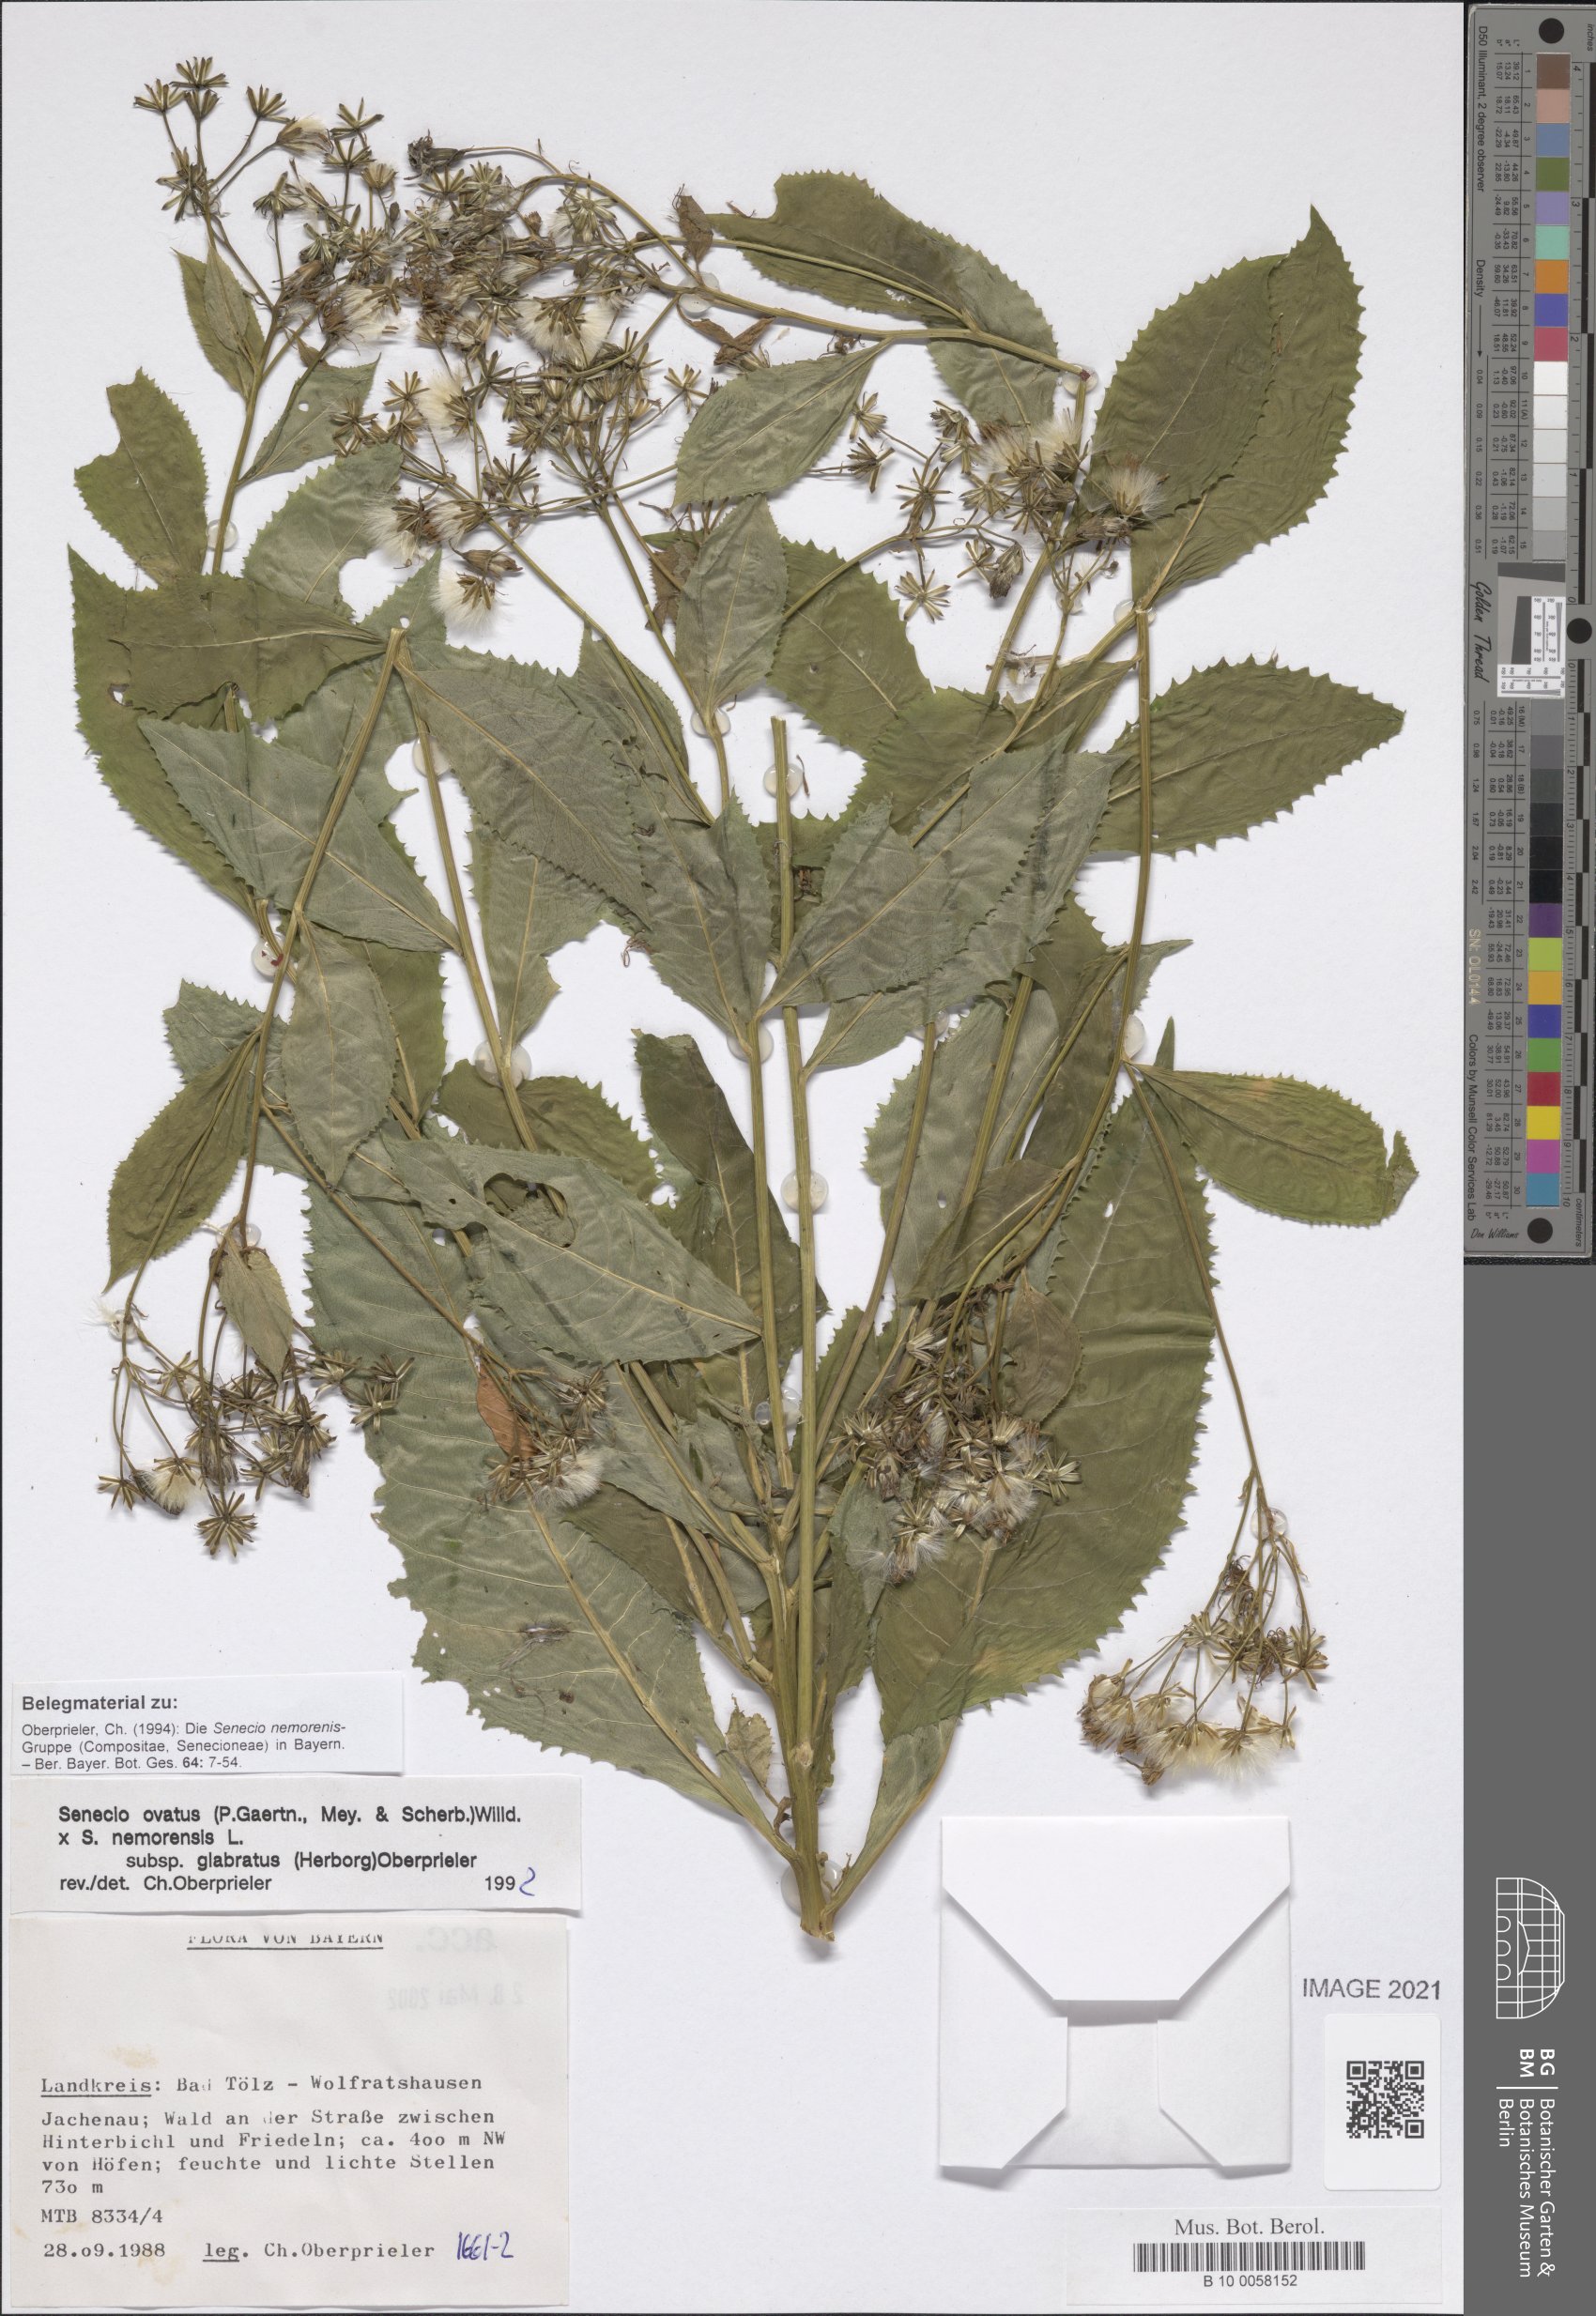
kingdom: Plantae
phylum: Tracheophyta
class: Magnoliopsida
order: Asterales
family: Asteraceae
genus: Senecio
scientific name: Senecio ovatus
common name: Wood ragwort
